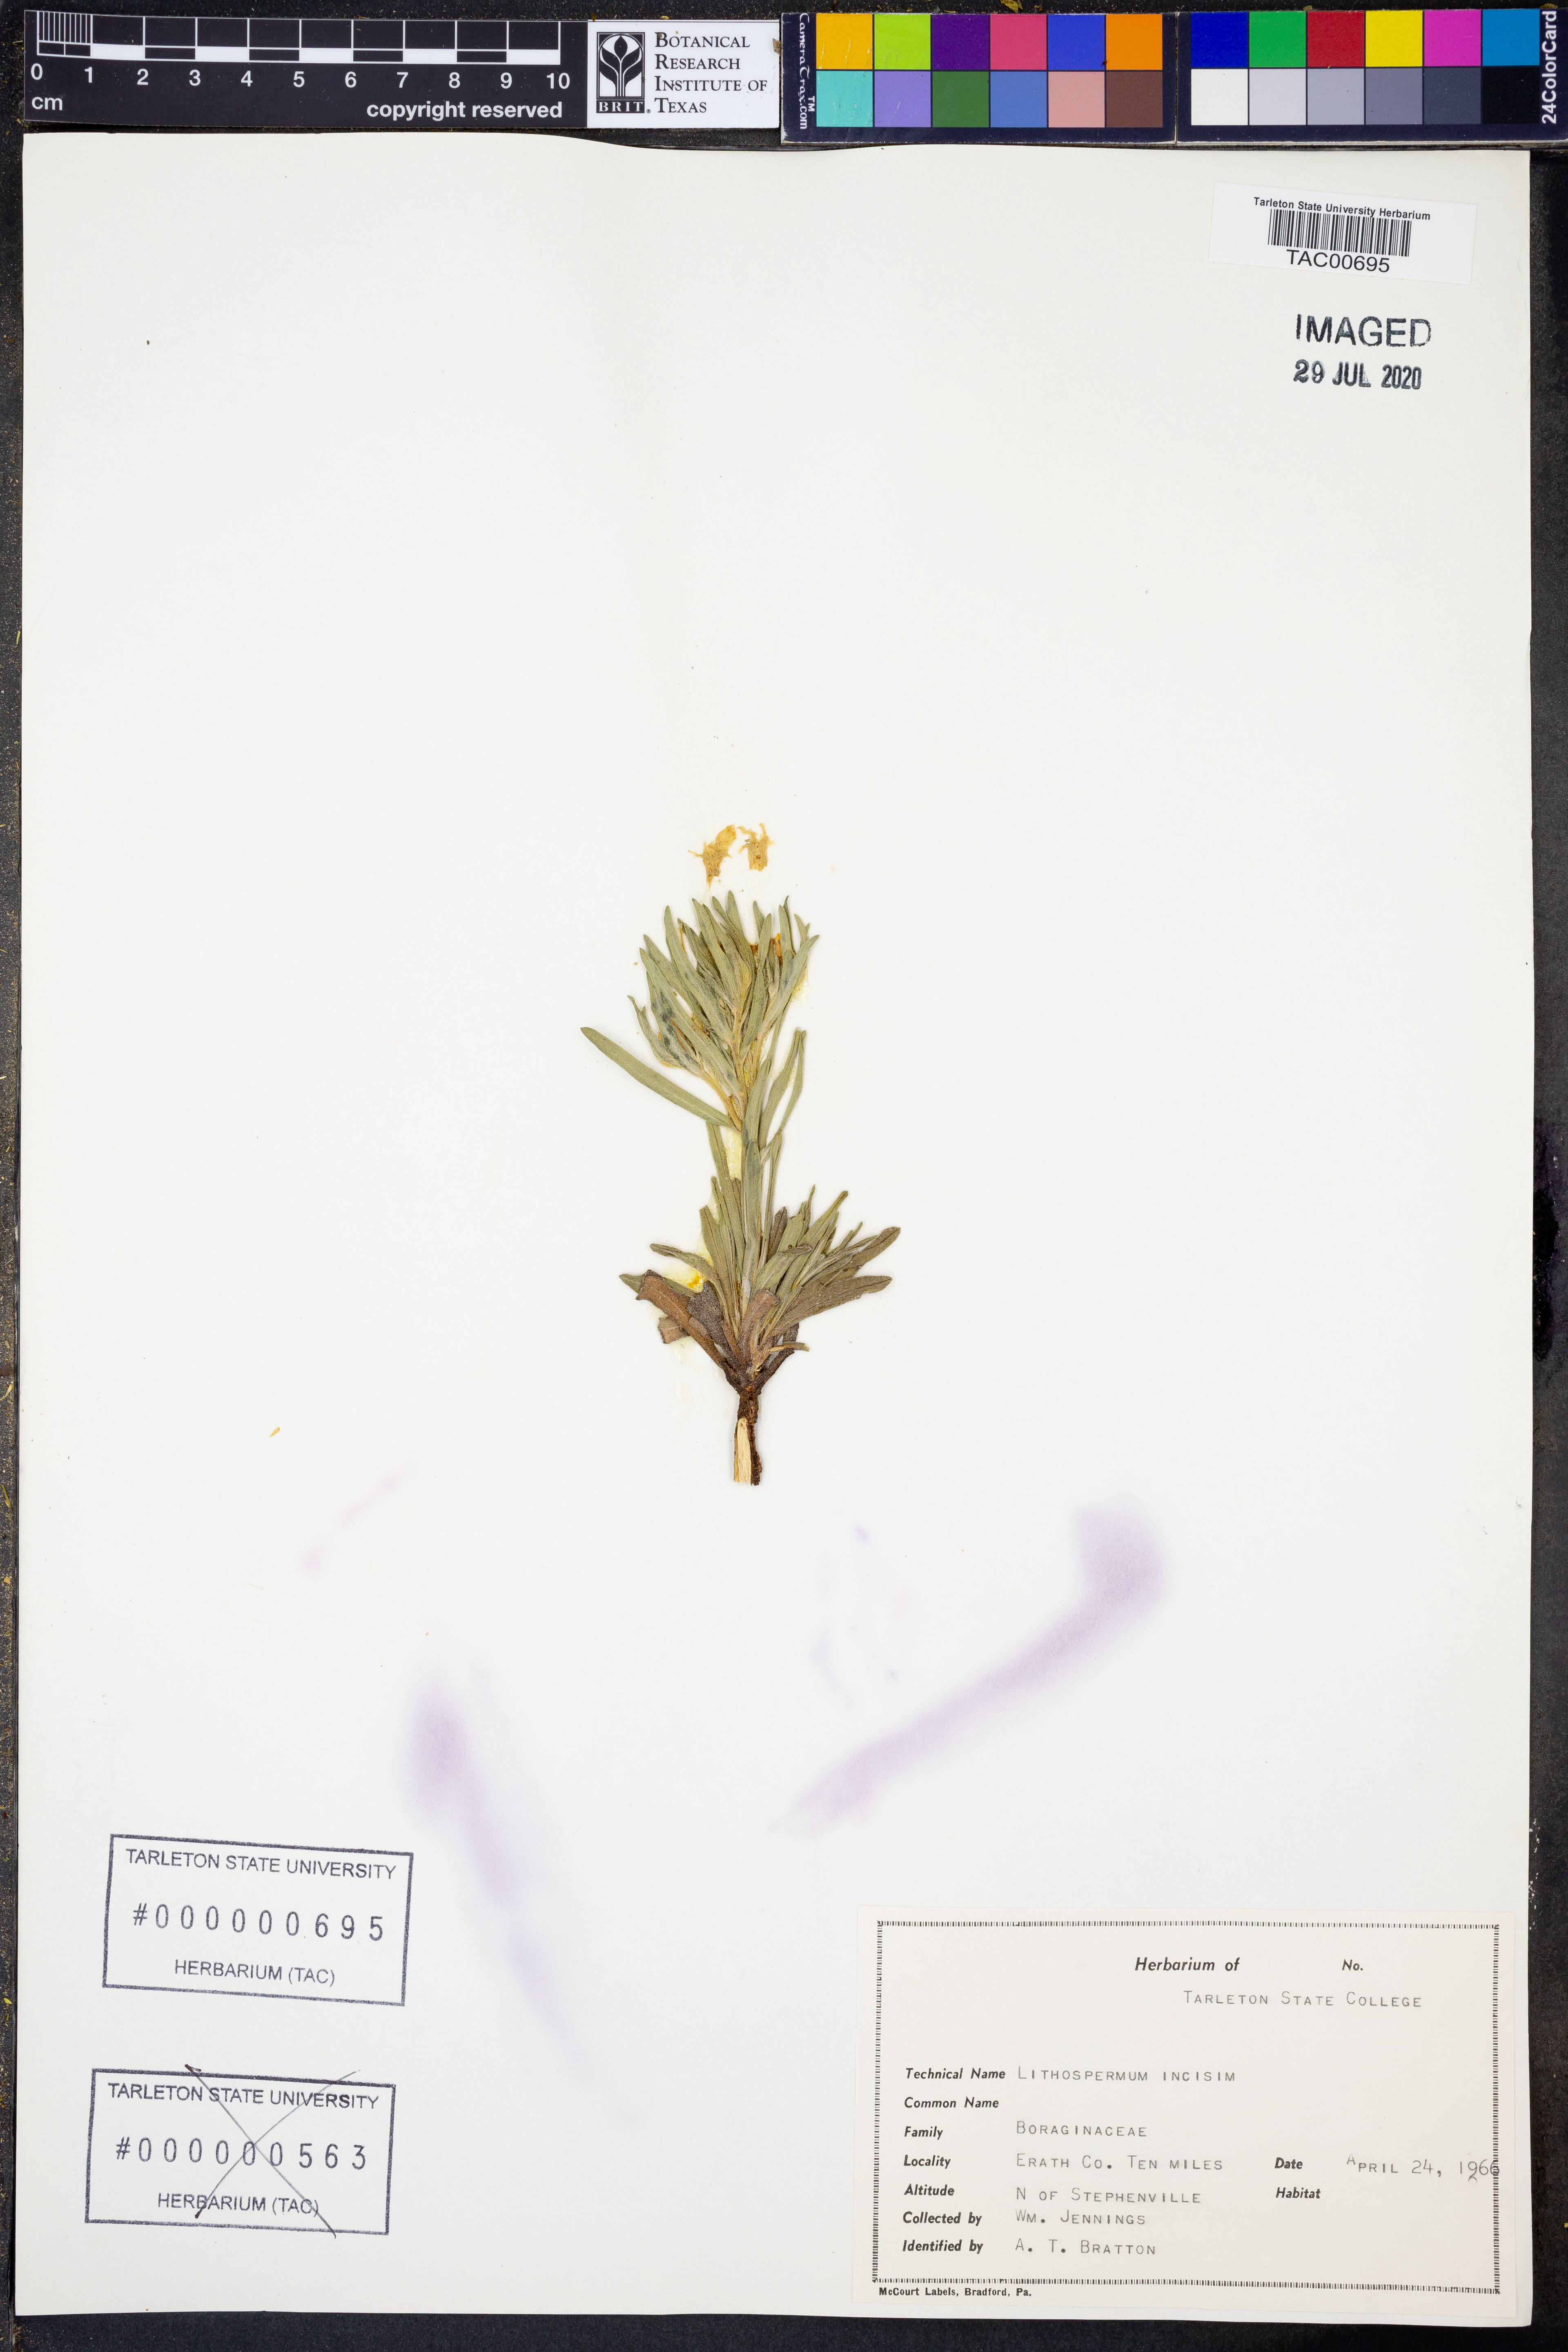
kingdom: Plantae
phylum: Tracheophyta
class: Magnoliopsida
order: Boraginales
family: Boraginaceae
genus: Lithospermum
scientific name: Lithospermum incisum
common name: Fringed gromwell
